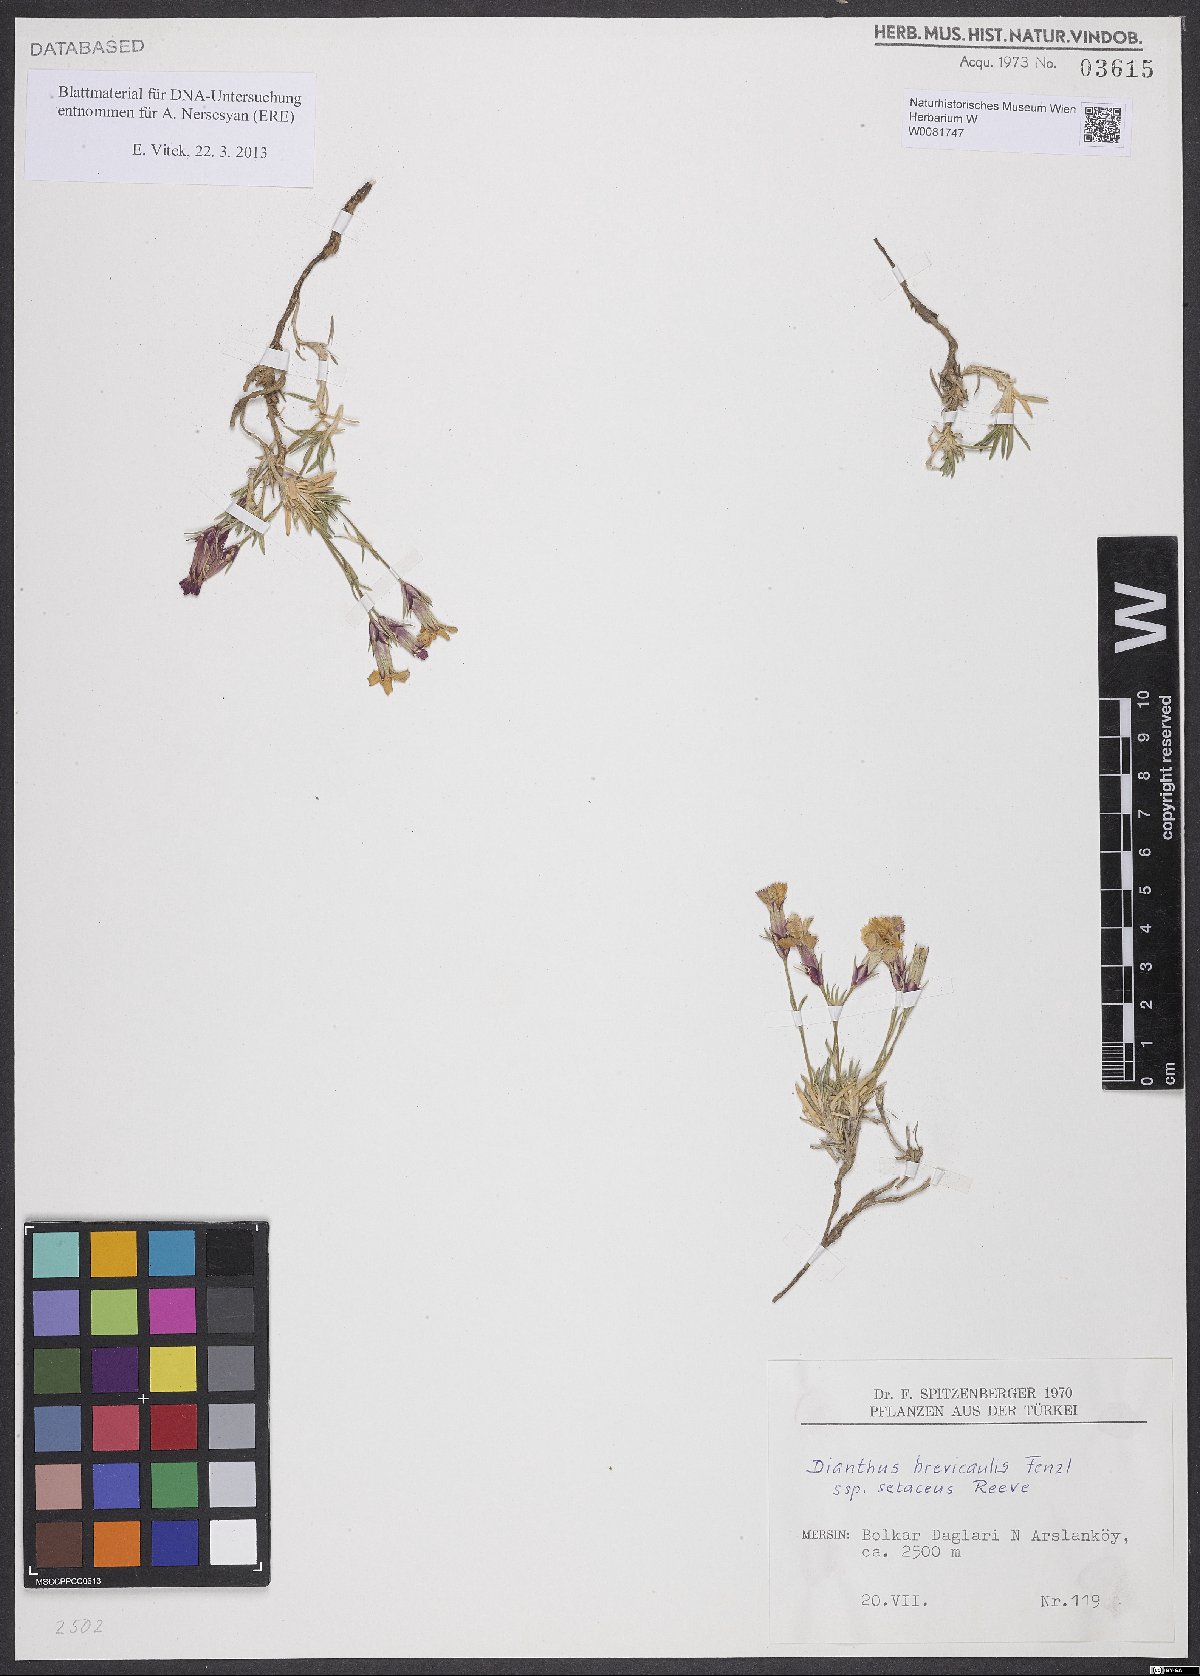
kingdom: Plantae
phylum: Tracheophyta
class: Magnoliopsida
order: Caryophyllales
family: Caryophyllaceae
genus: Dianthus
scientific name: Dianthus brevicaulis
